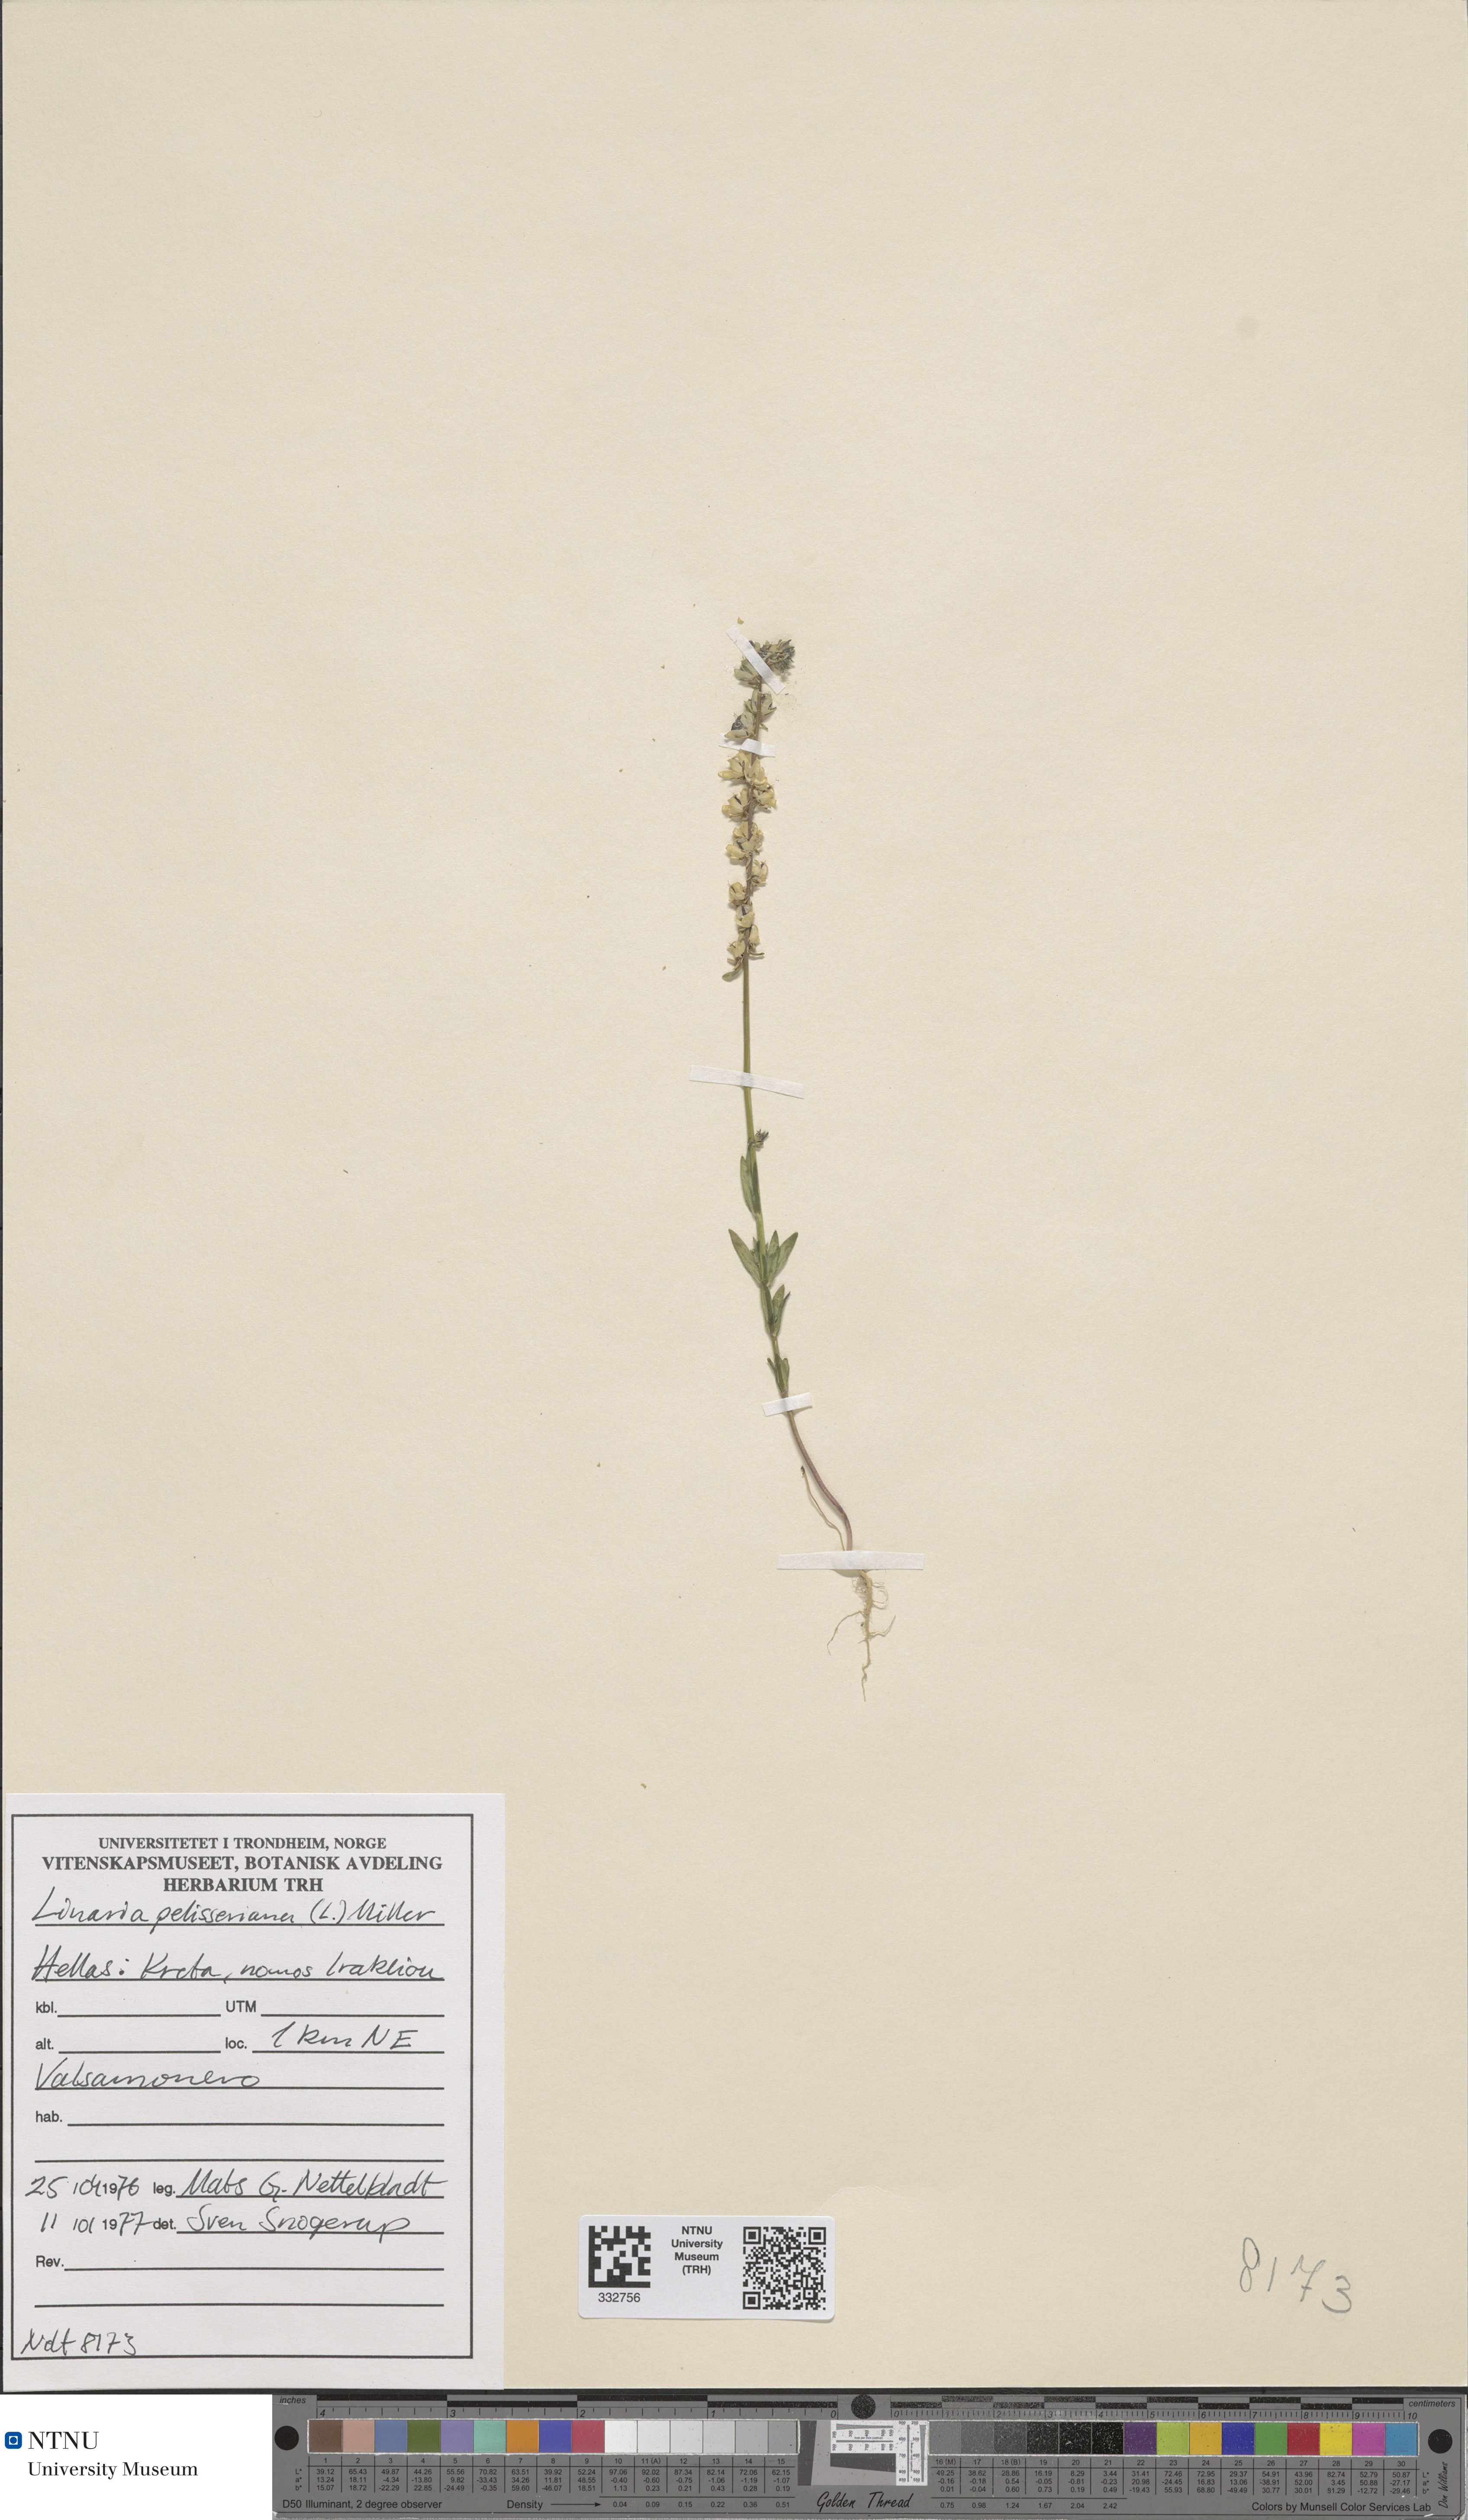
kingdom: Plantae
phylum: Tracheophyta
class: Magnoliopsida
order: Lamiales
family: Plantaginaceae
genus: Linaria
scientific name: Linaria pelisseriana
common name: Jersey toadflax
